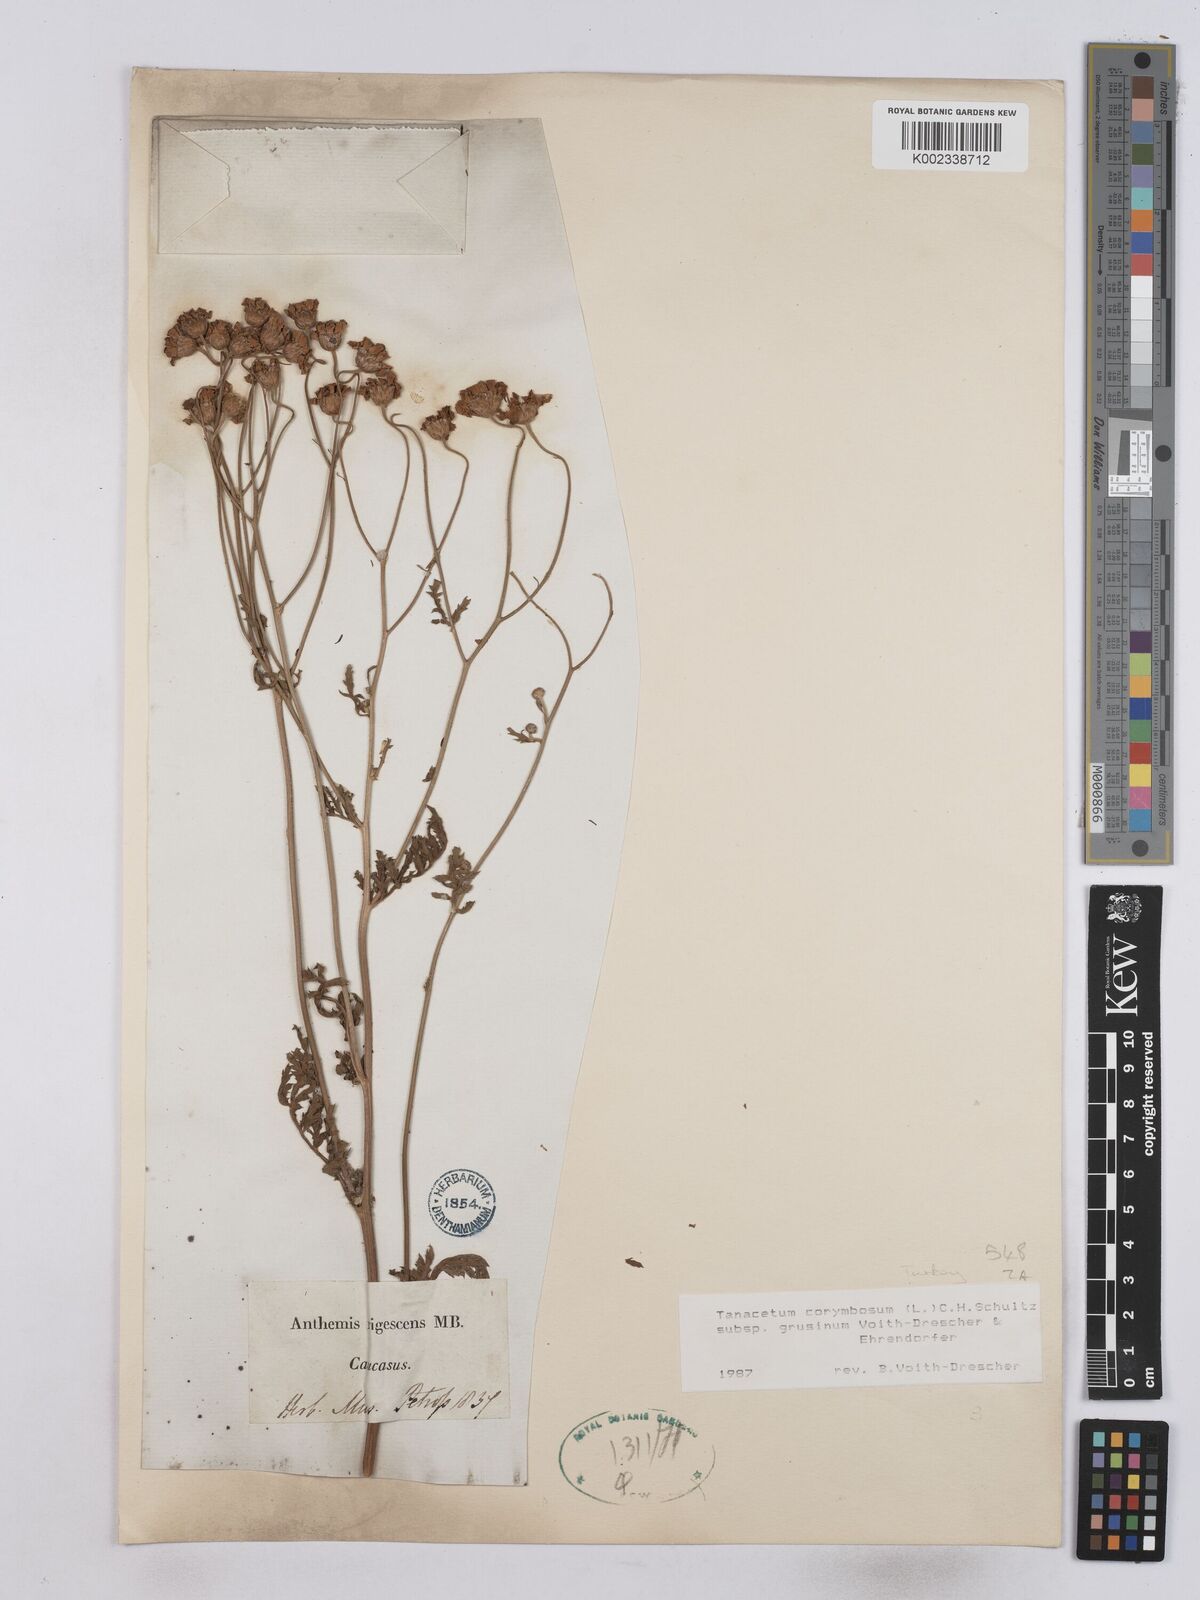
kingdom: Plantae
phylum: Tracheophyta
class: Magnoliopsida
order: Asterales
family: Asteraceae
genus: Tanacetum
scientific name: Tanacetum corymbosum
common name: Scentless feverfew
